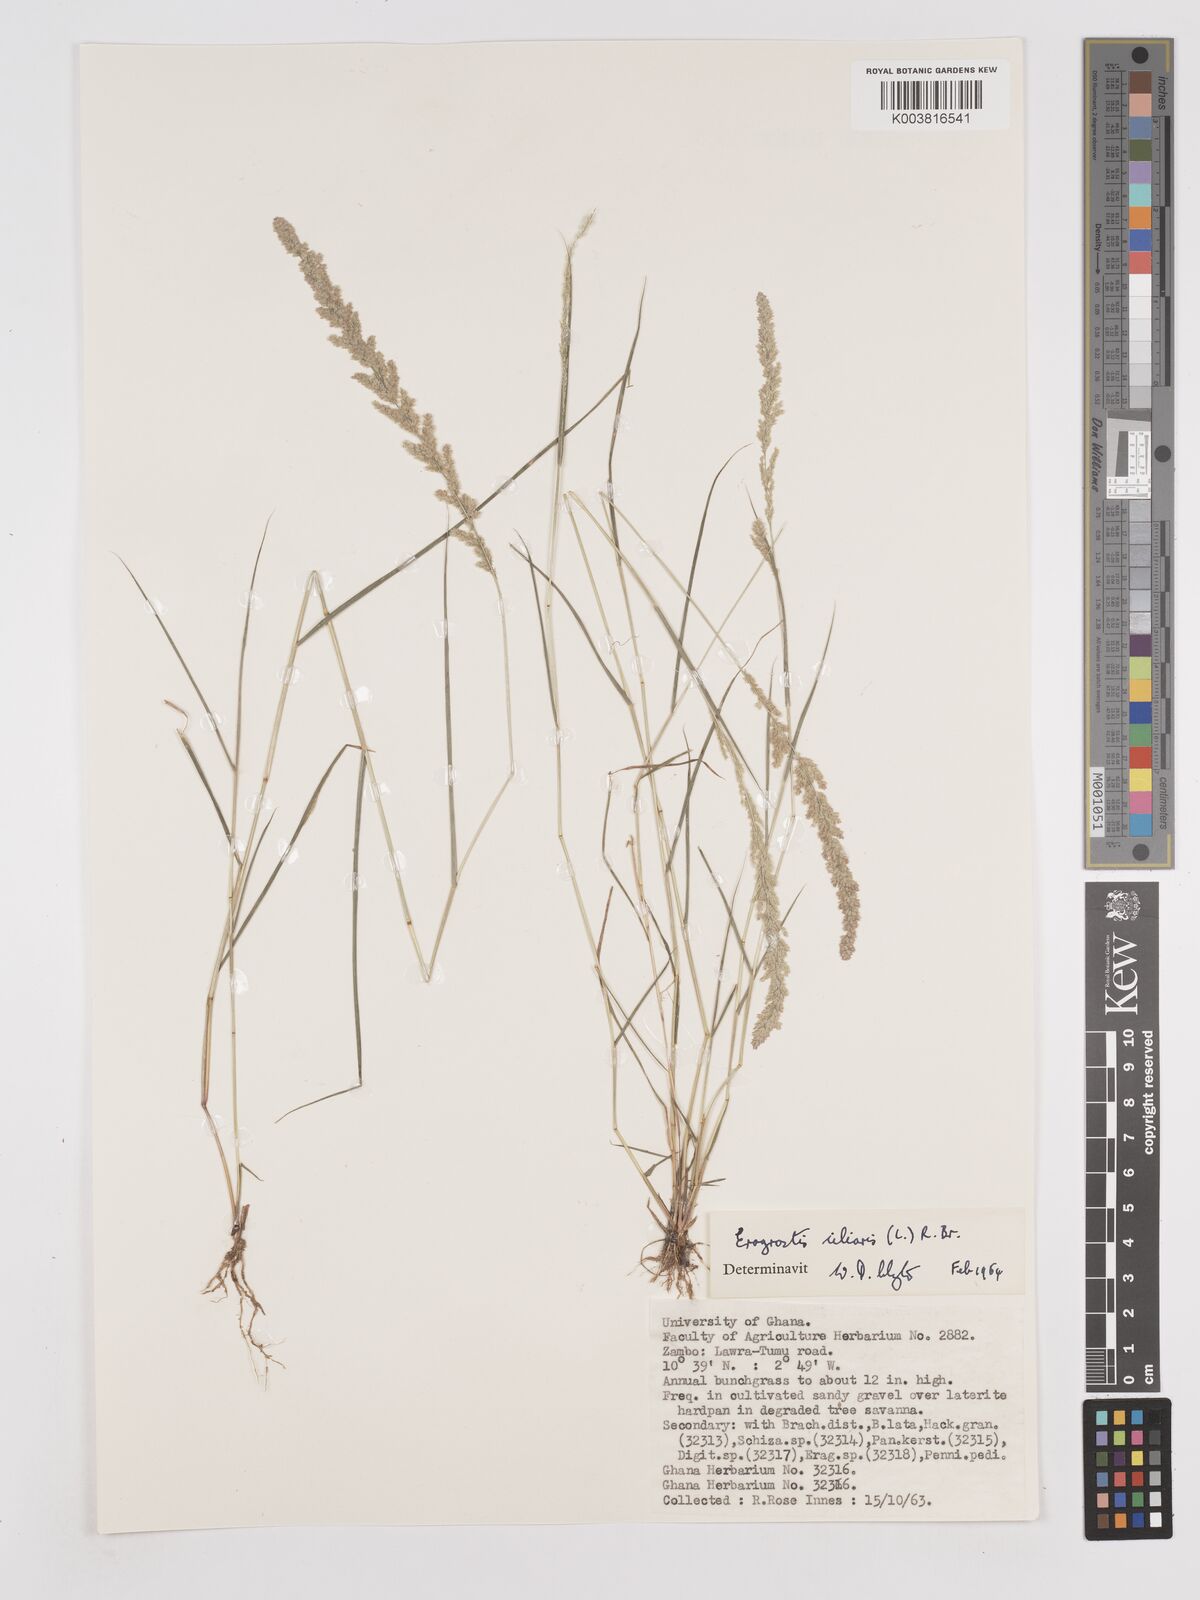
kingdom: Plantae
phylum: Tracheophyta
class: Liliopsida
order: Poales
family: Poaceae
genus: Eragrostis
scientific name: Eragrostis ciliaris
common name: Gophertail lovegrass
